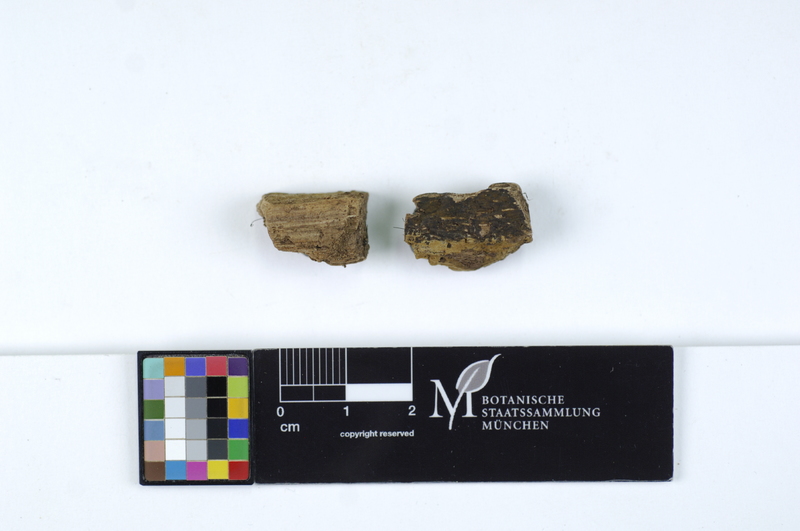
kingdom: Fungi
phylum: Basidiomycota
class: Agaricomycetes
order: Boletales
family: Coniophoraceae
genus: Coniophora
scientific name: Coniophora olivacea
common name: Olive duster
